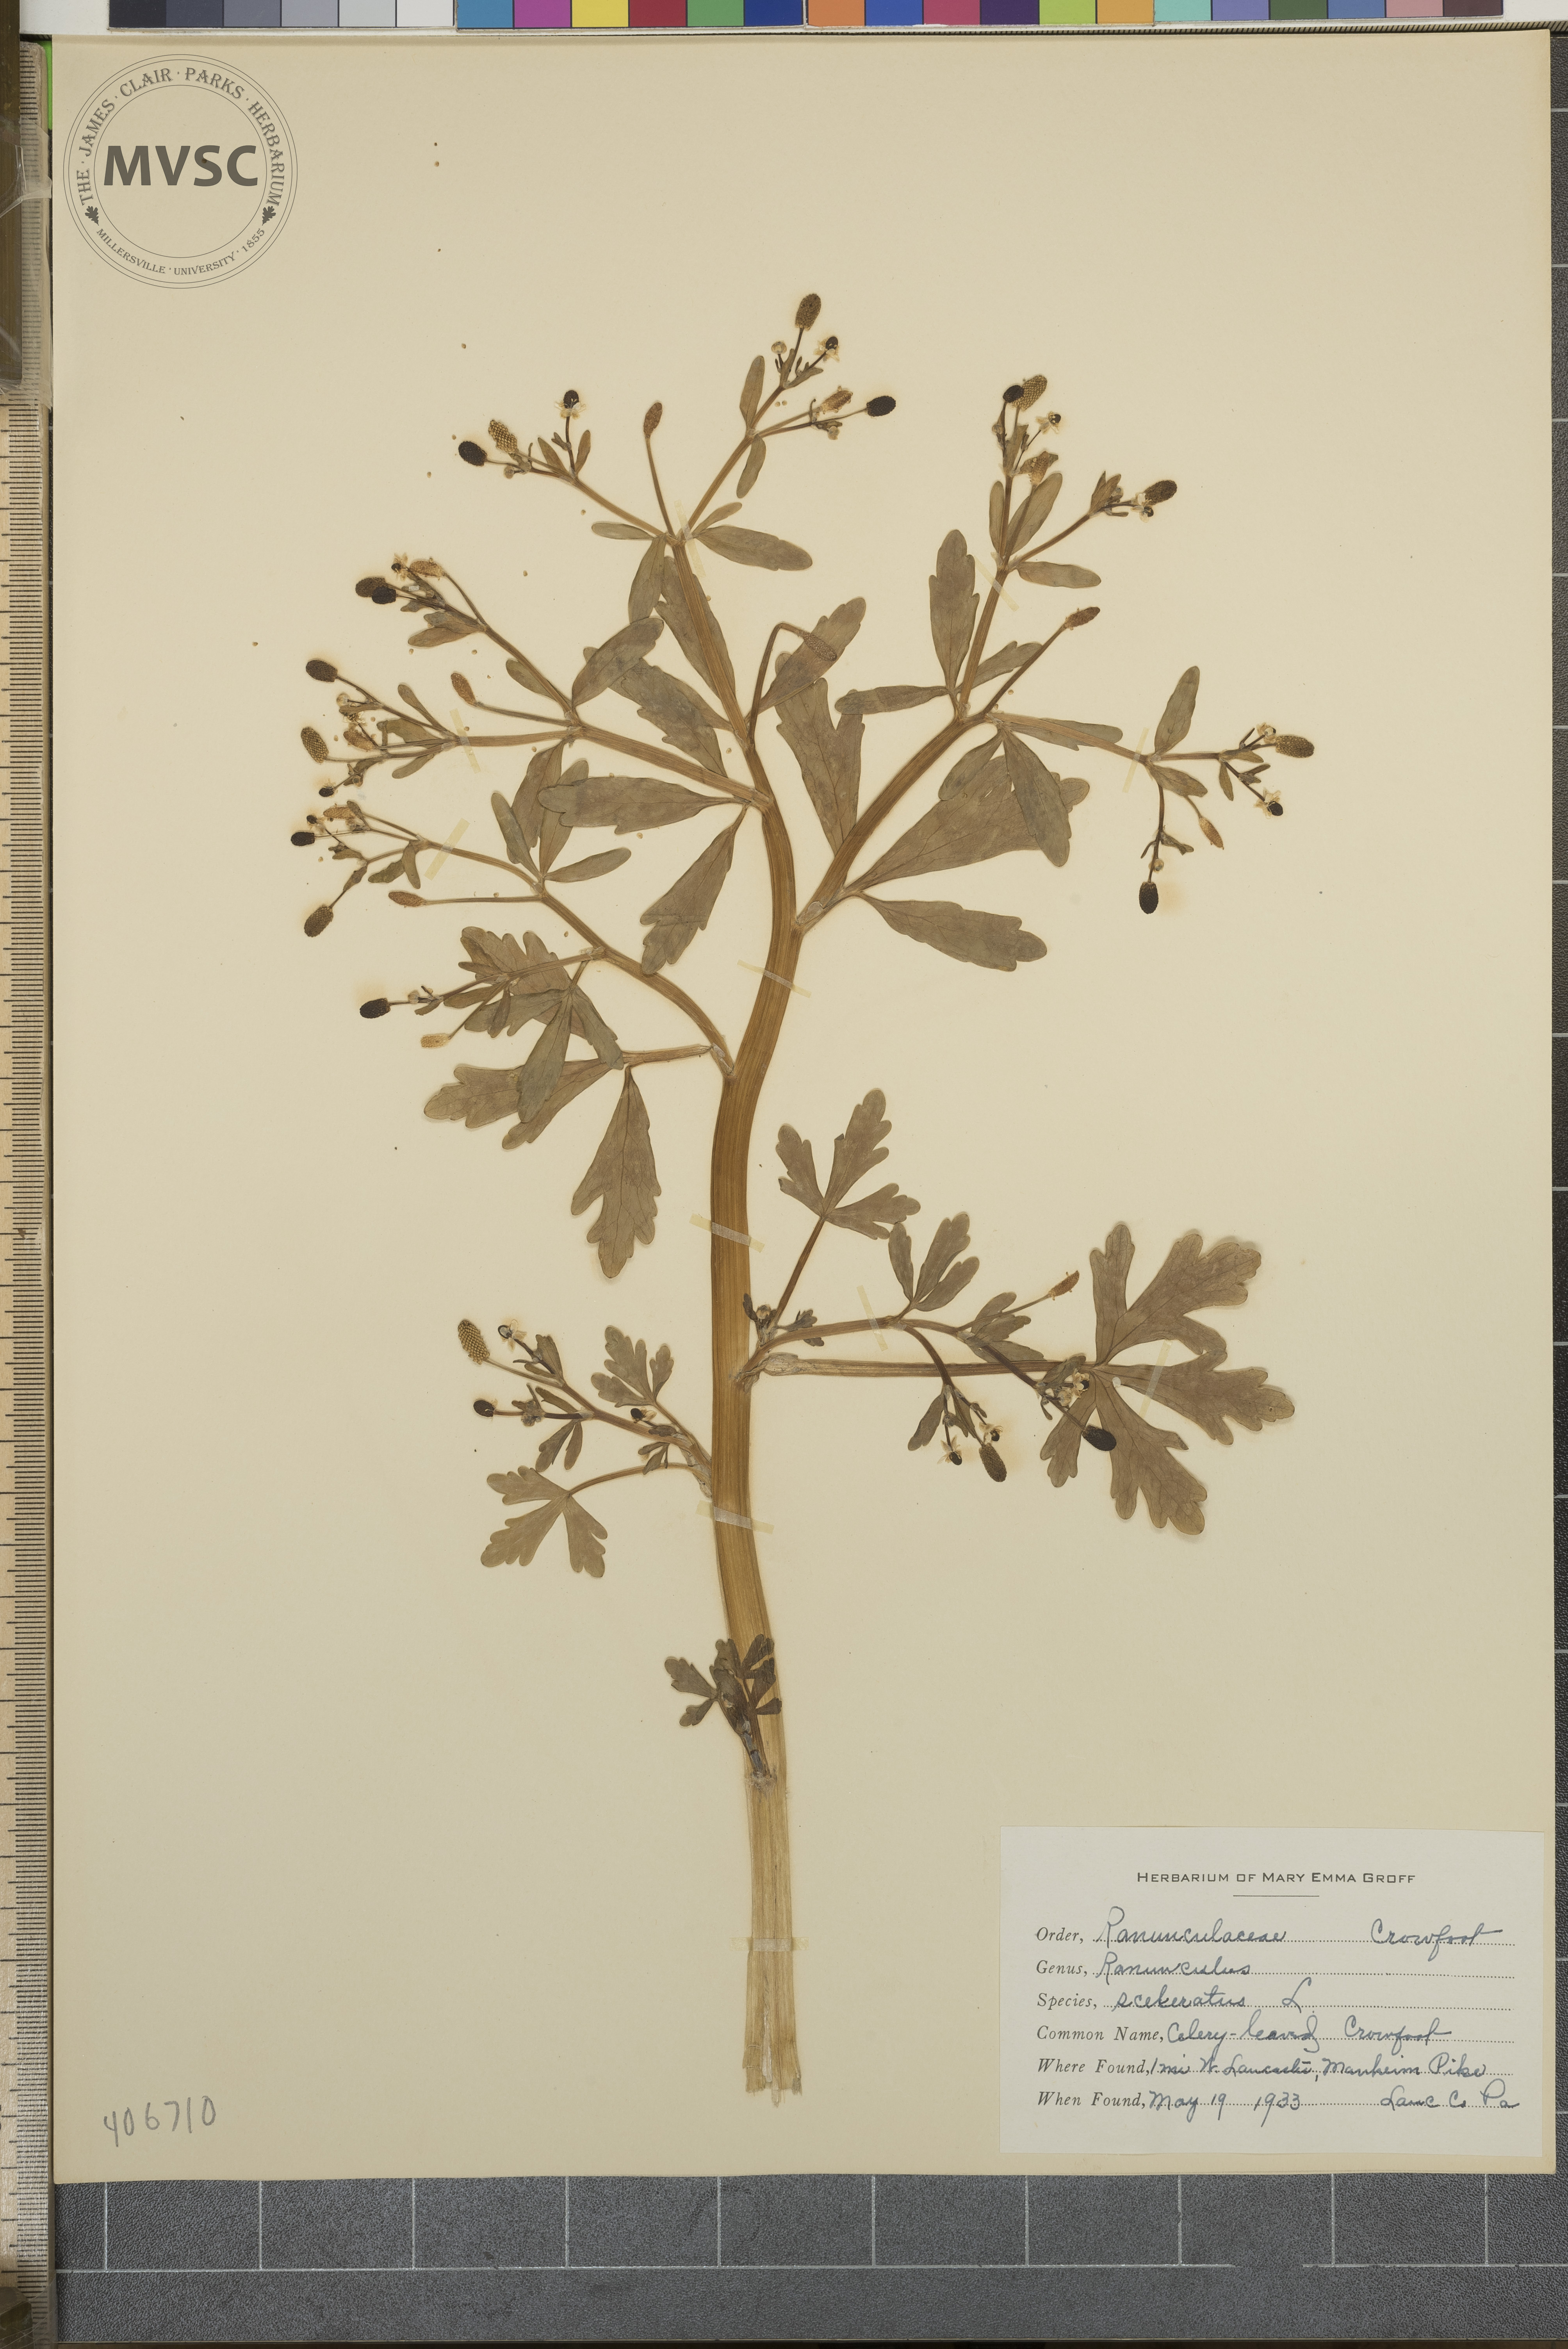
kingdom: Plantae
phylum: Tracheophyta
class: Magnoliopsida
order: Ranunculales
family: Ranunculaceae
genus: Ranunculus
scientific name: Ranunculus sceleratus
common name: Celery-leaved Crowfoot
